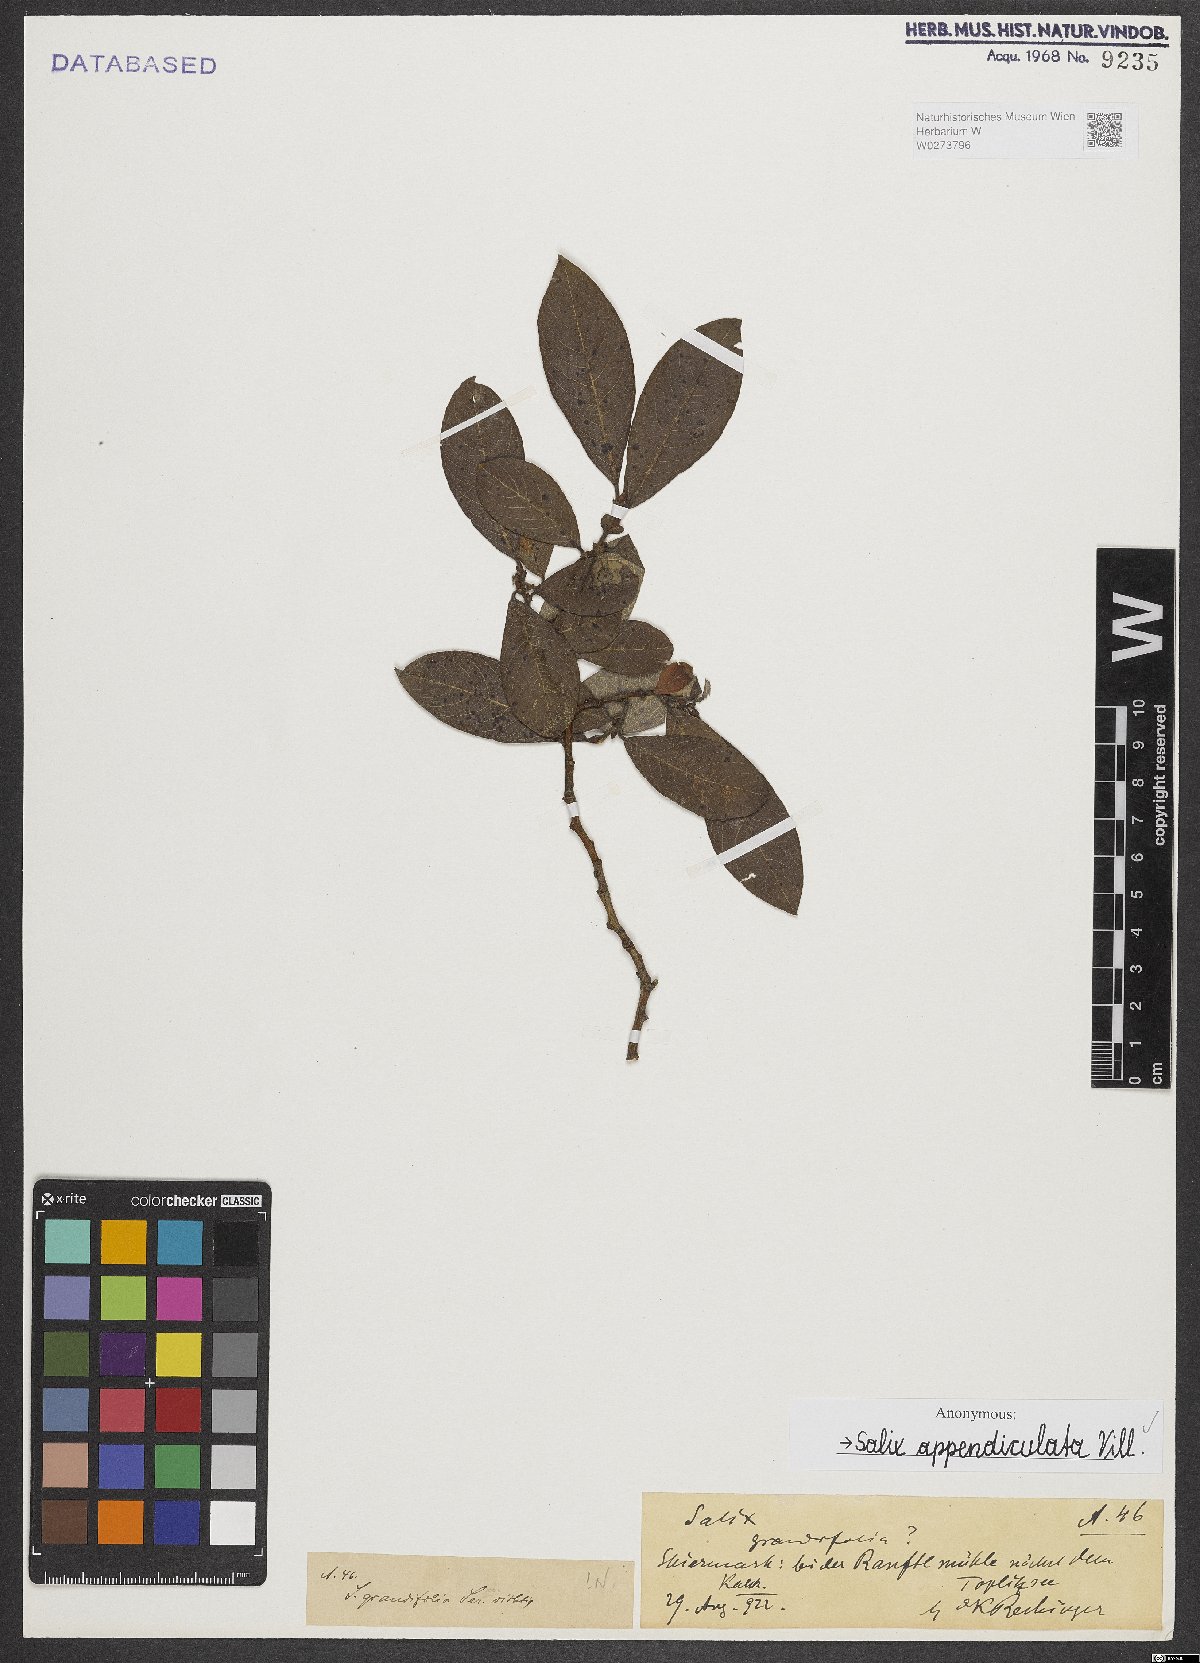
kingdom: Plantae
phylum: Tracheophyta
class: Magnoliopsida
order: Malpighiales
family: Salicaceae
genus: Salix
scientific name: Salix appendiculata
